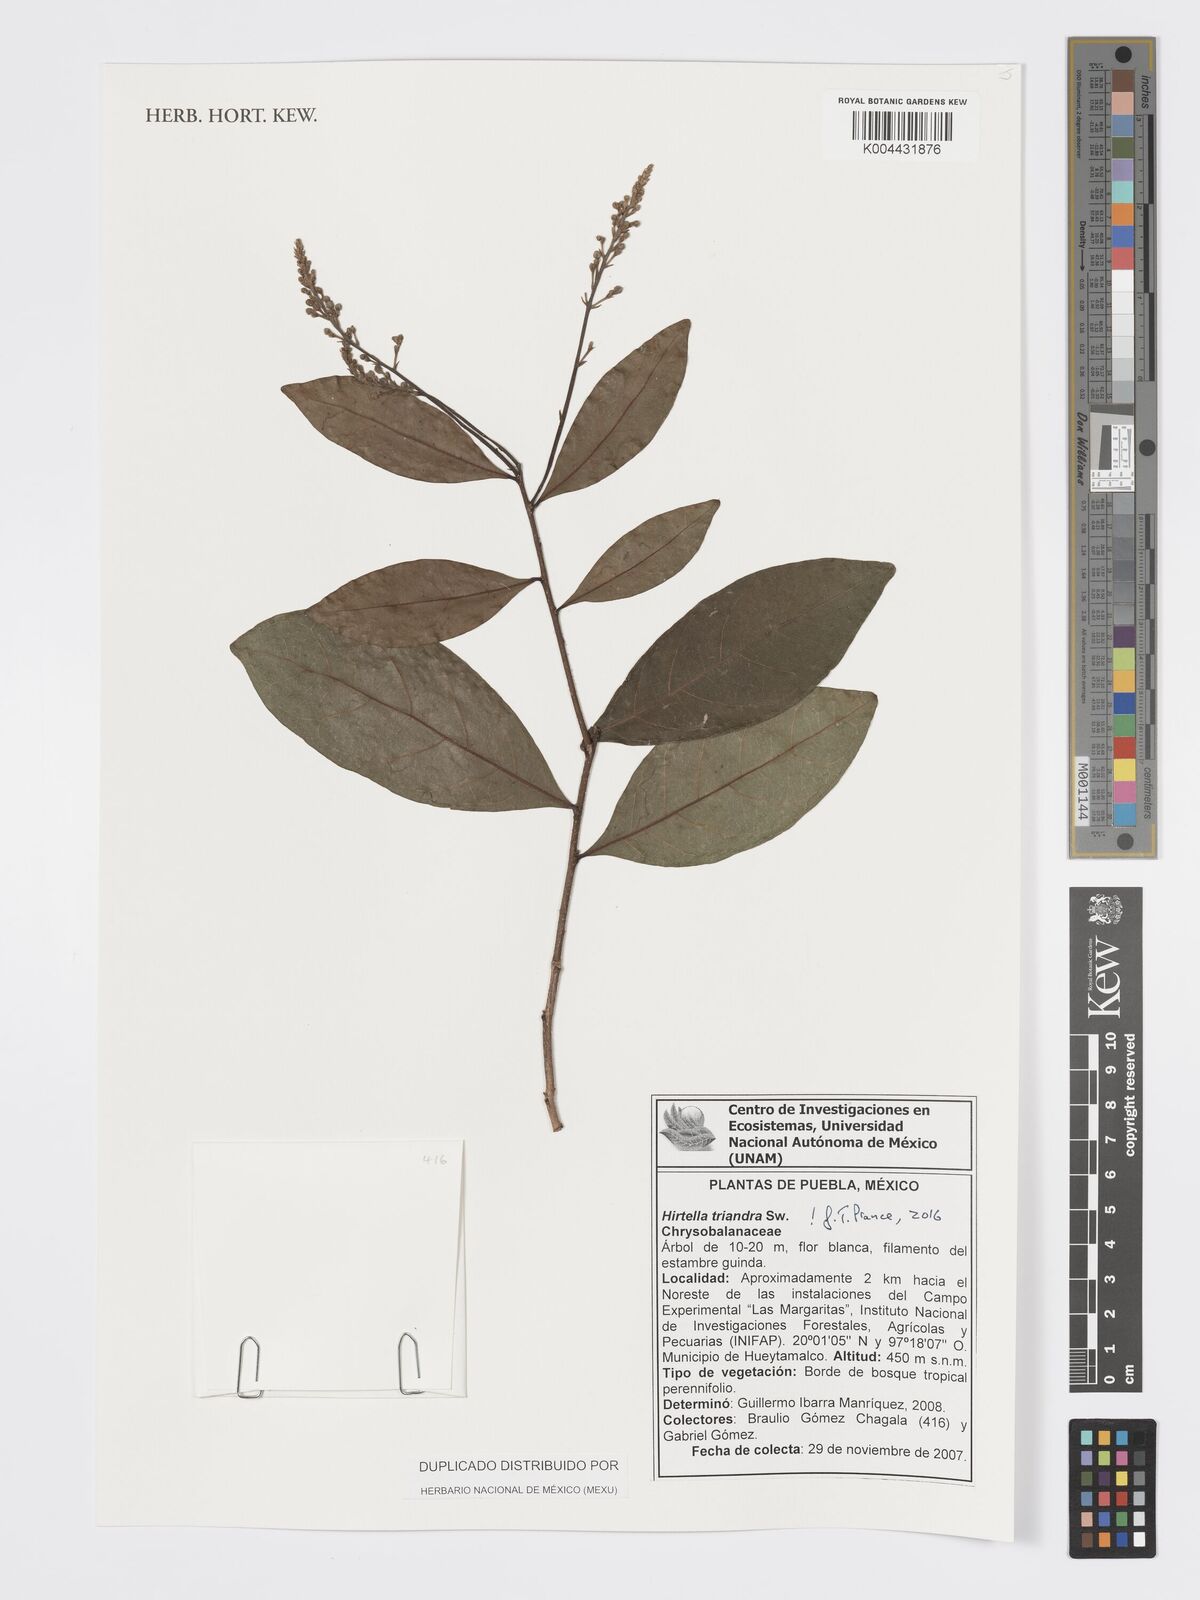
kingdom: Plantae
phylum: Tracheophyta
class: Magnoliopsida
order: Malpighiales
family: Chrysobalanaceae
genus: Hirtella
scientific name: Hirtella triandra
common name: Hairy plum
